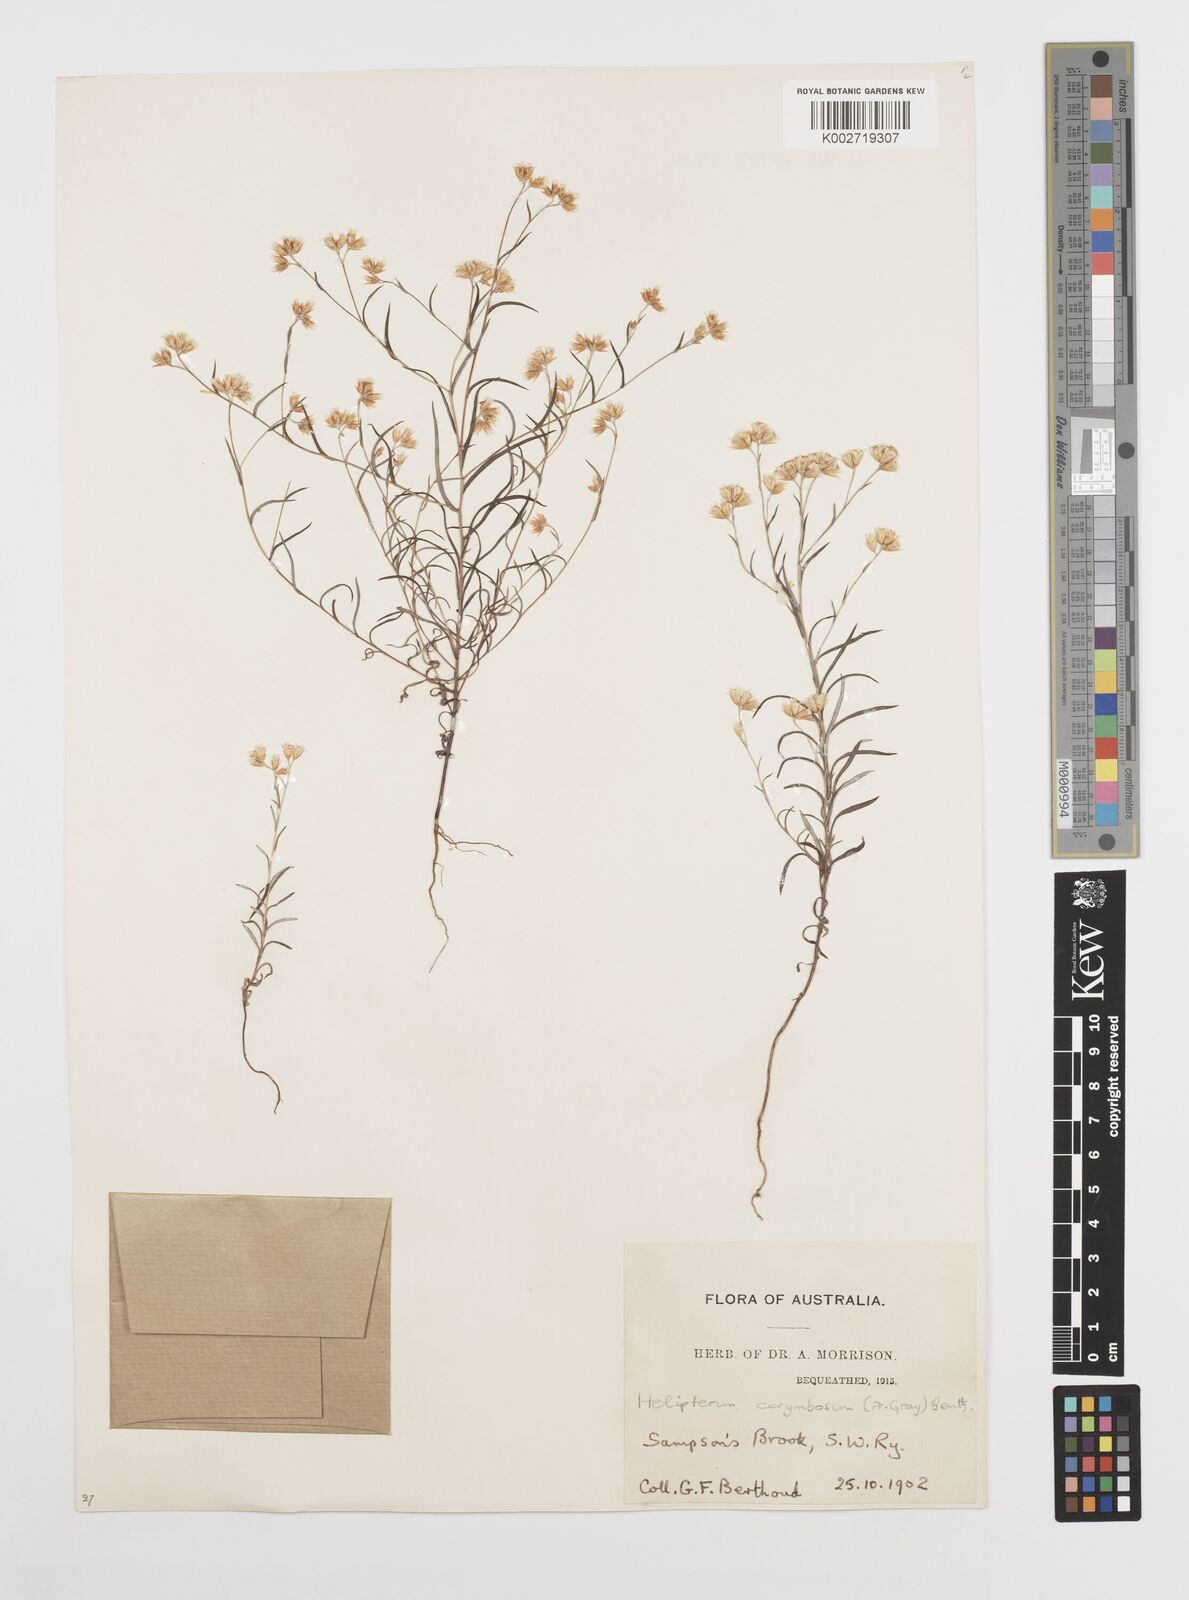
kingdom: Plantae
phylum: Tracheophyta
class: Magnoliopsida
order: Asterales
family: Asteraceae
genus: Rhodanthe
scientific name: Rhodanthe corymbosa
